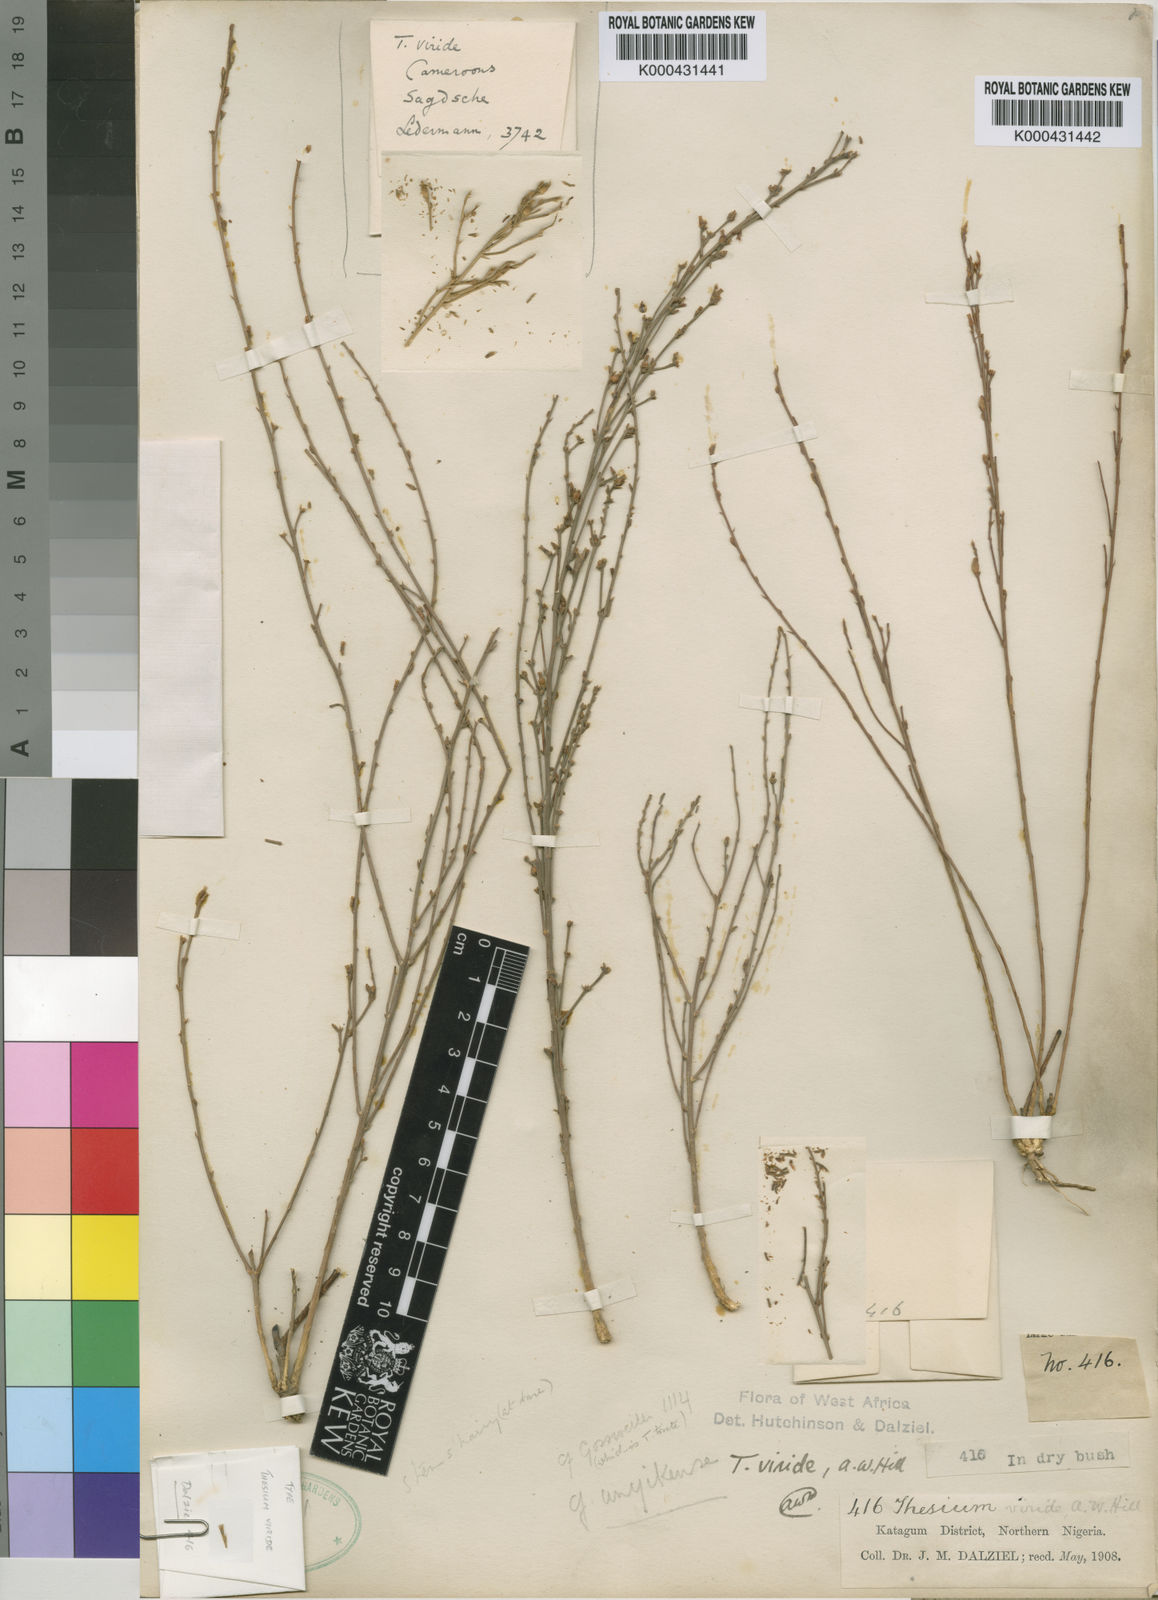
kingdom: Plantae
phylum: Tracheophyta
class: Magnoliopsida
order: Santalales
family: Thesiaceae
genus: Thesium
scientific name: Thesium viride
